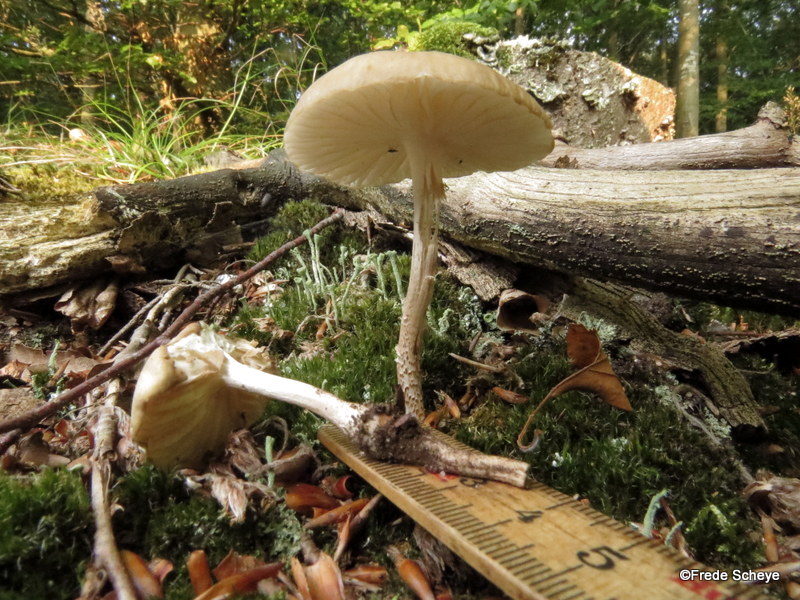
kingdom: Fungi
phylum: Basidiomycota
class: Agaricomycetes
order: Agaricales
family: Physalacriaceae
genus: Hymenopellis
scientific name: Hymenopellis radicata
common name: almindelig pælerodshat
